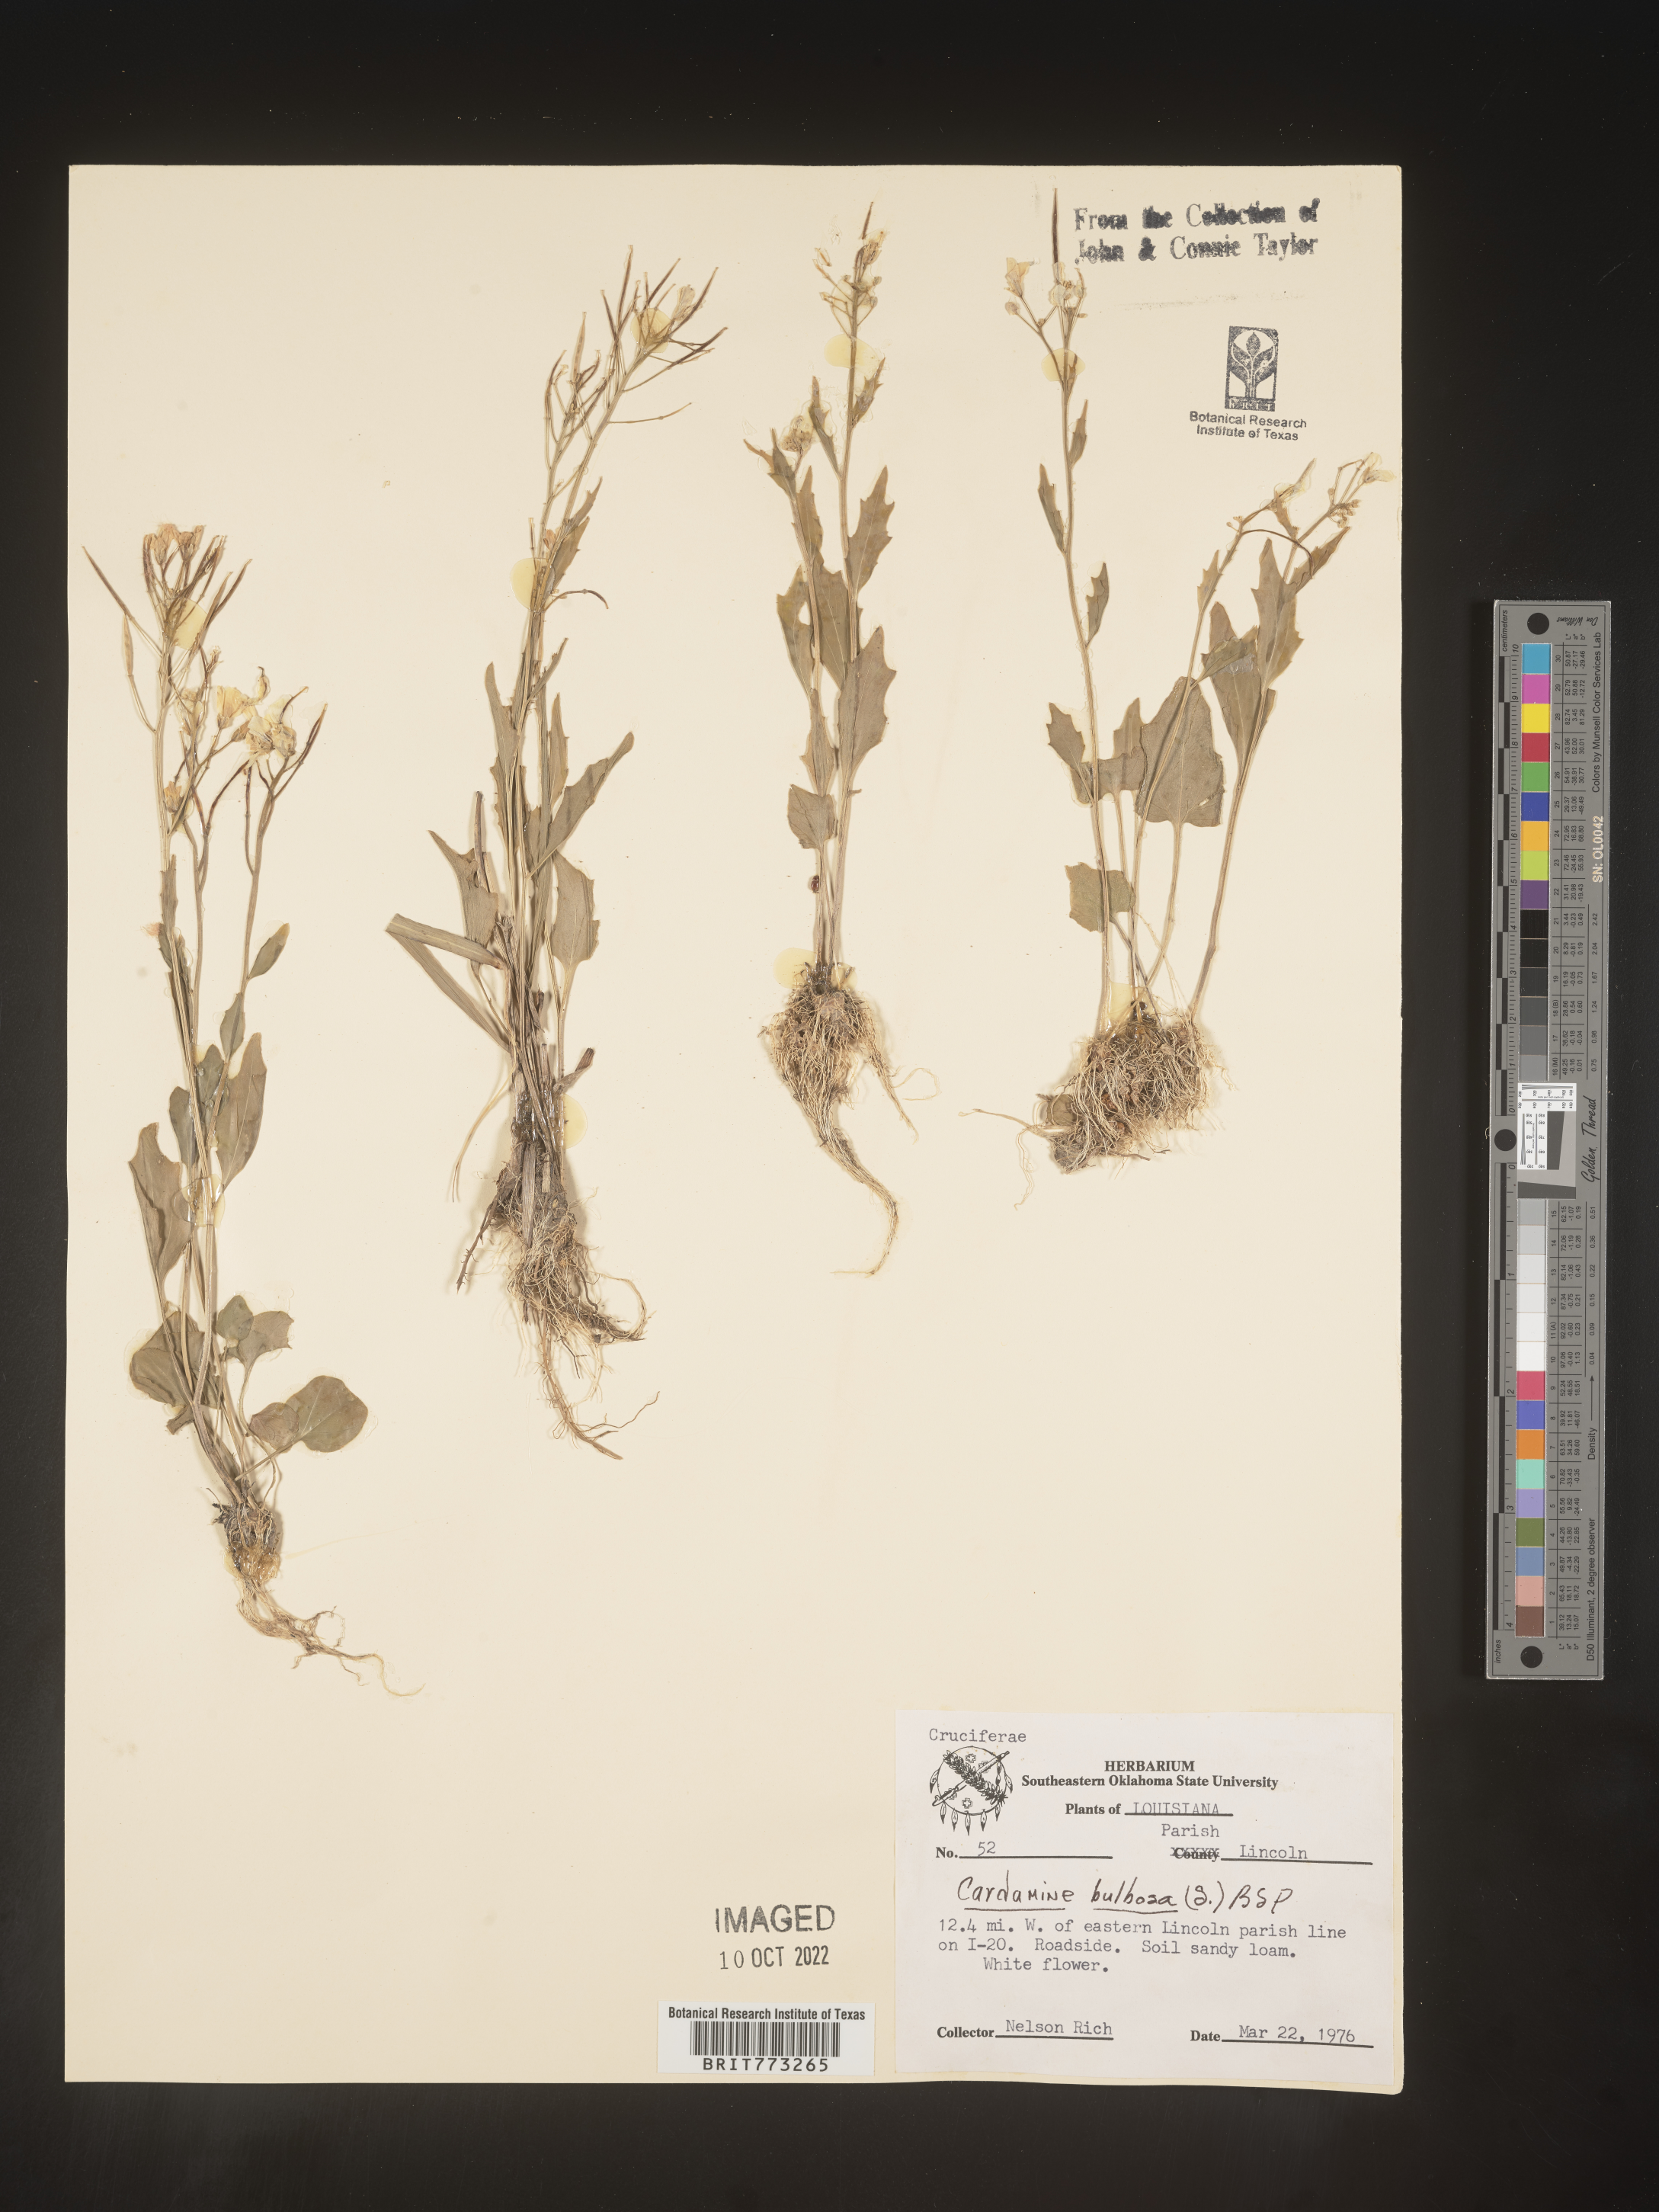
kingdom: Plantae
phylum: Tracheophyta
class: Magnoliopsida
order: Brassicales
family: Brassicaceae
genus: Cardamine
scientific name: Cardamine bulbosa
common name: Spring cress
